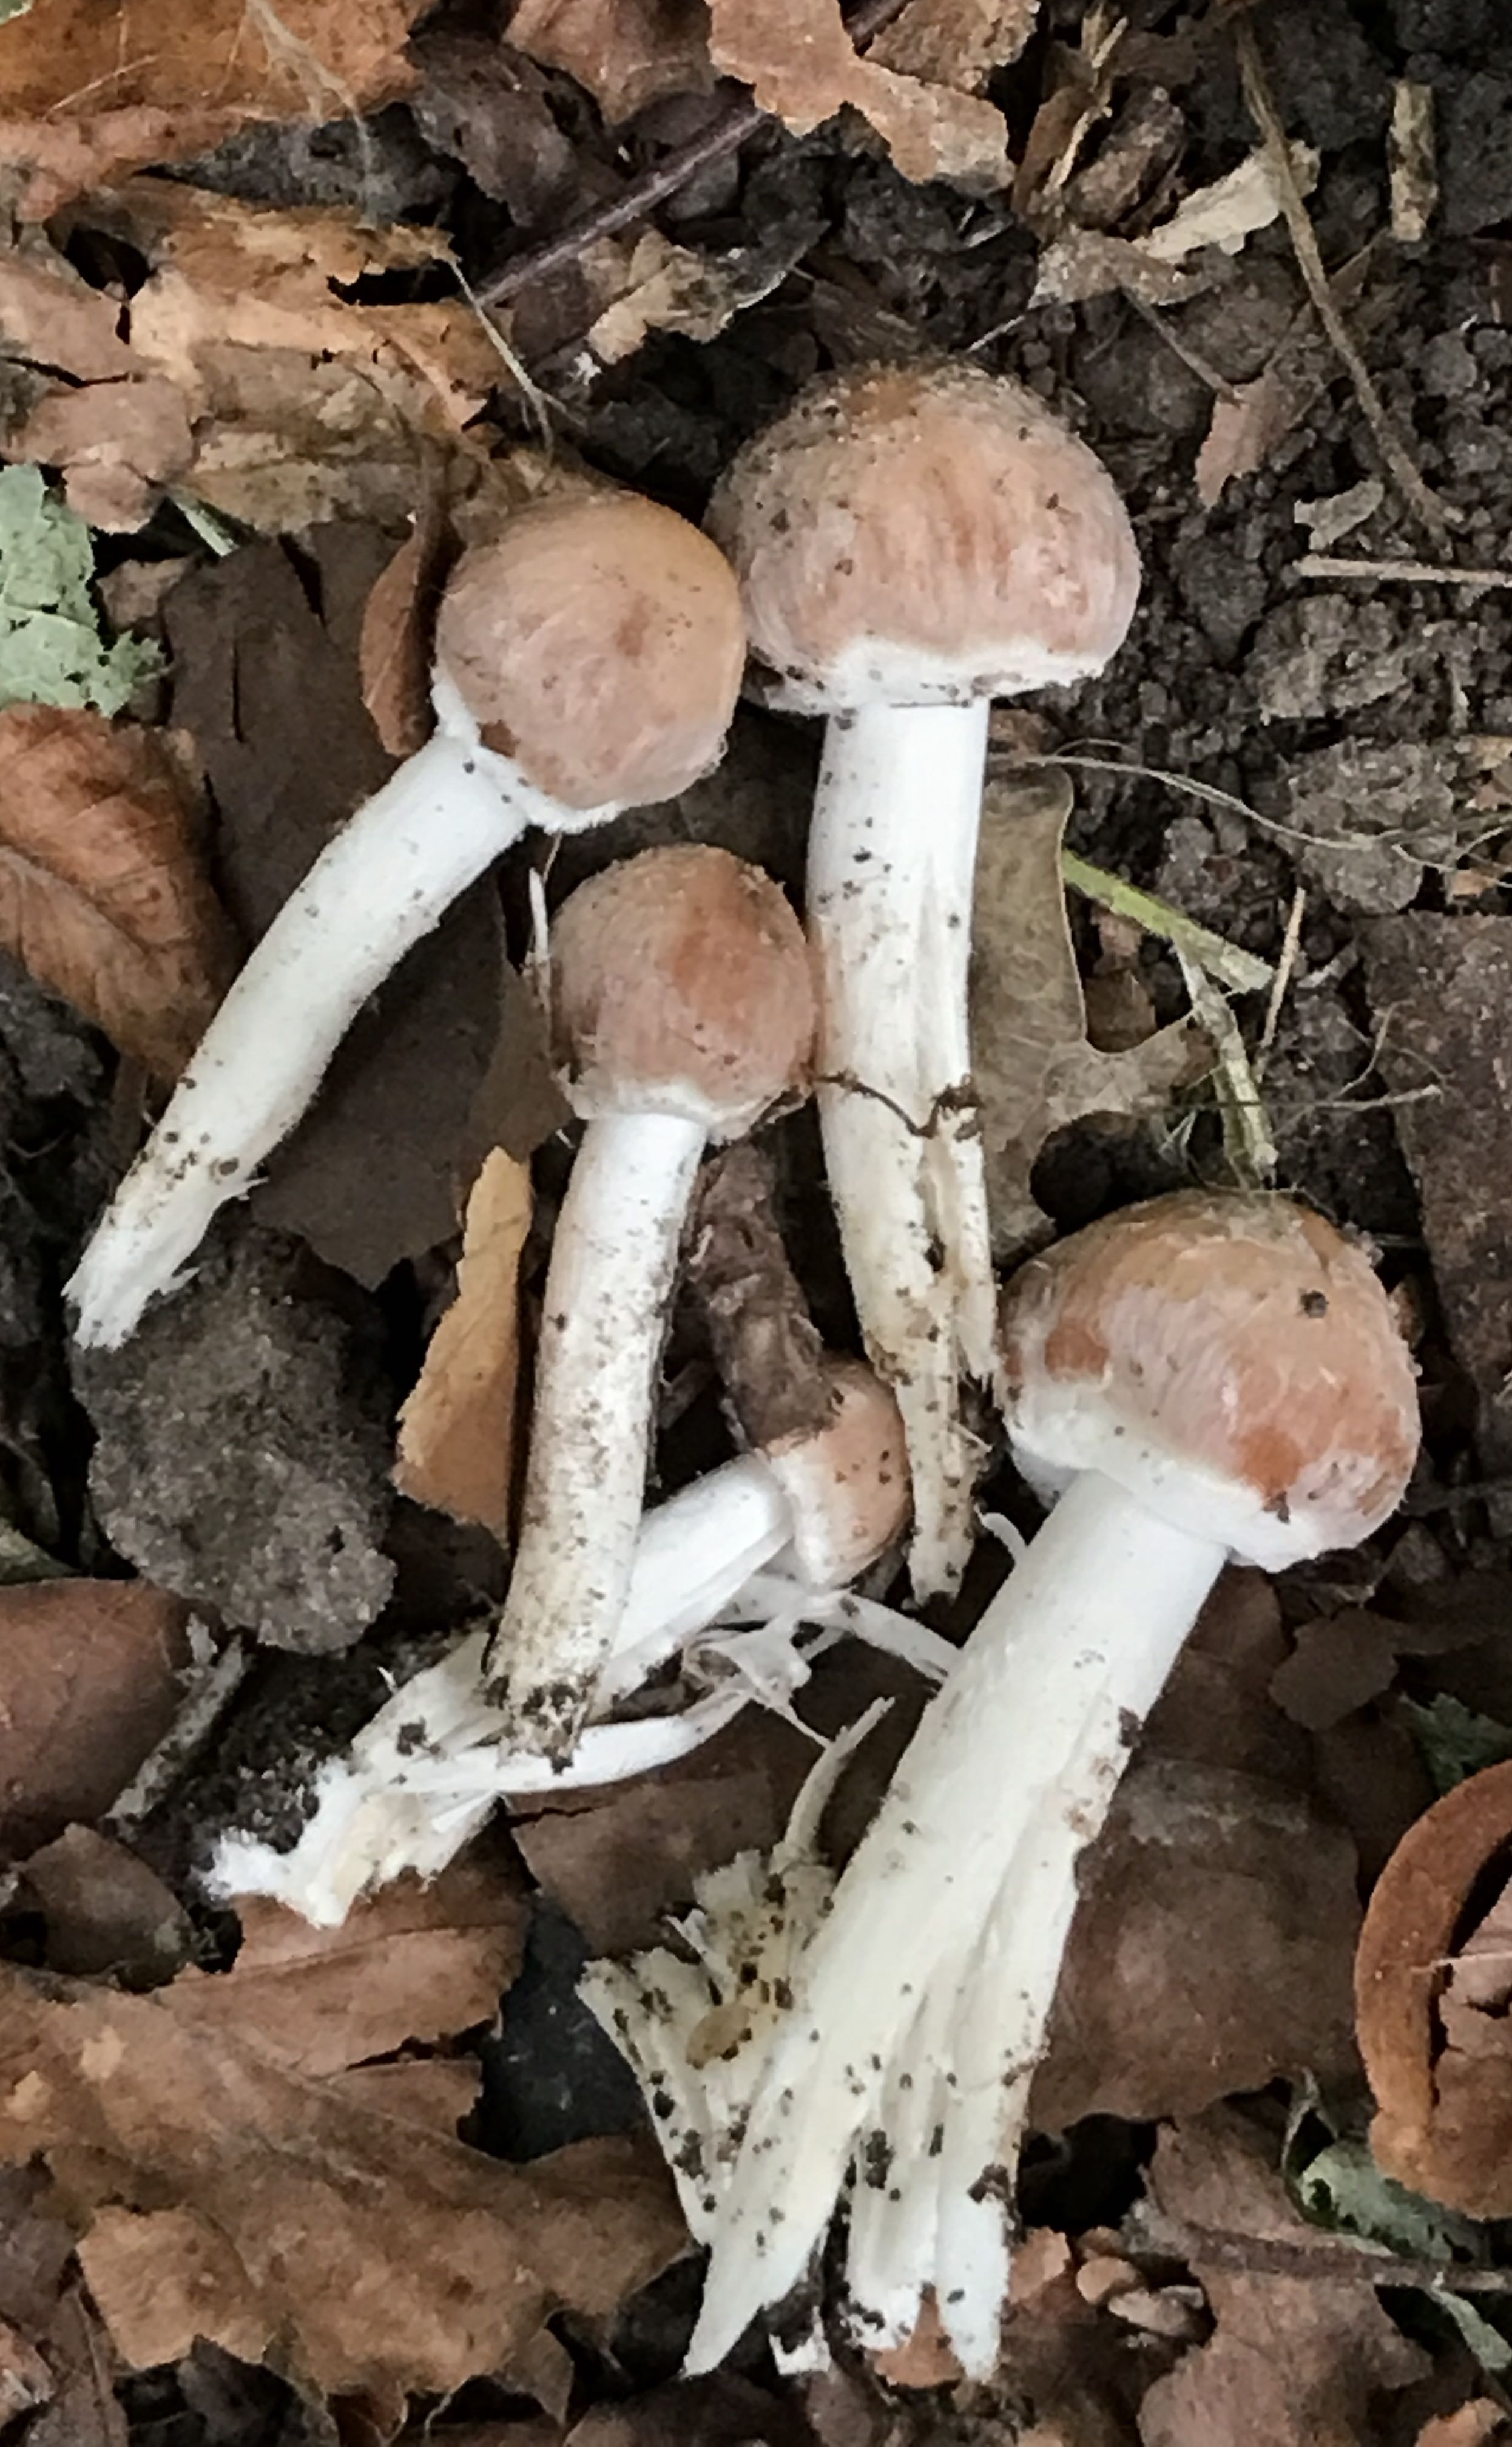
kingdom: Fungi
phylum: Basidiomycota
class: Agaricomycetes
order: Agaricales
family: Strophariaceae
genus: Hypholoma
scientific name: Hypholoma lateritium
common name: teglrød svovlhat
